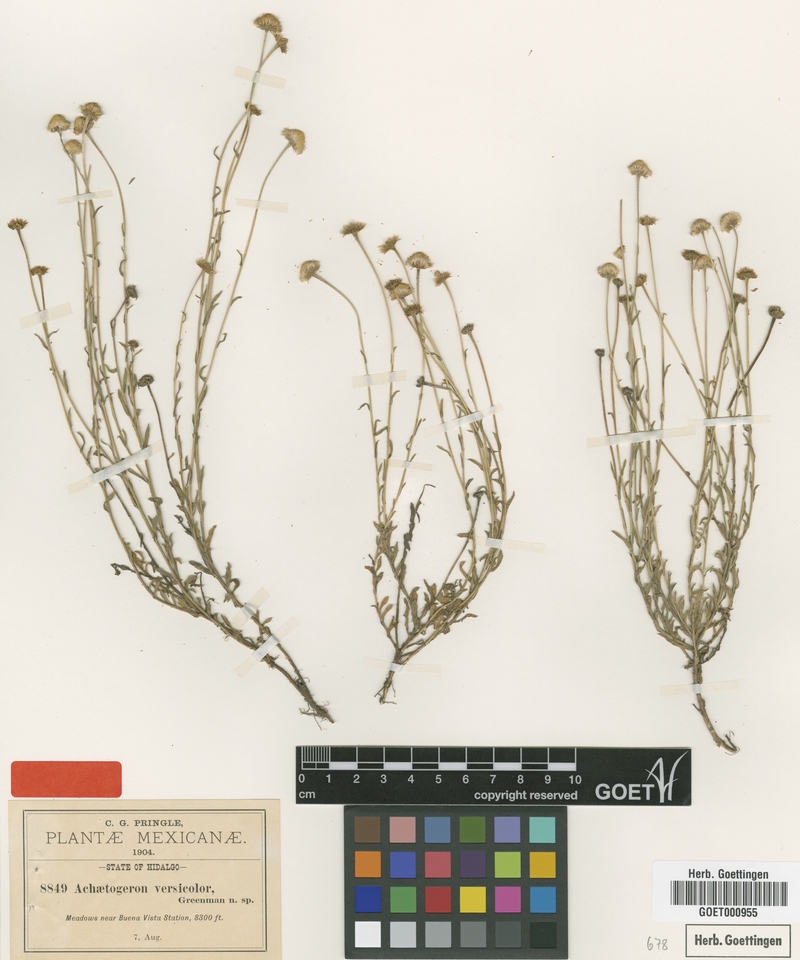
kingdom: Plantae
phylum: Tracheophyta
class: Magnoliopsida
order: Asterales
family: Asteraceae
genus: Erigeron
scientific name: Erigeron versicolor
